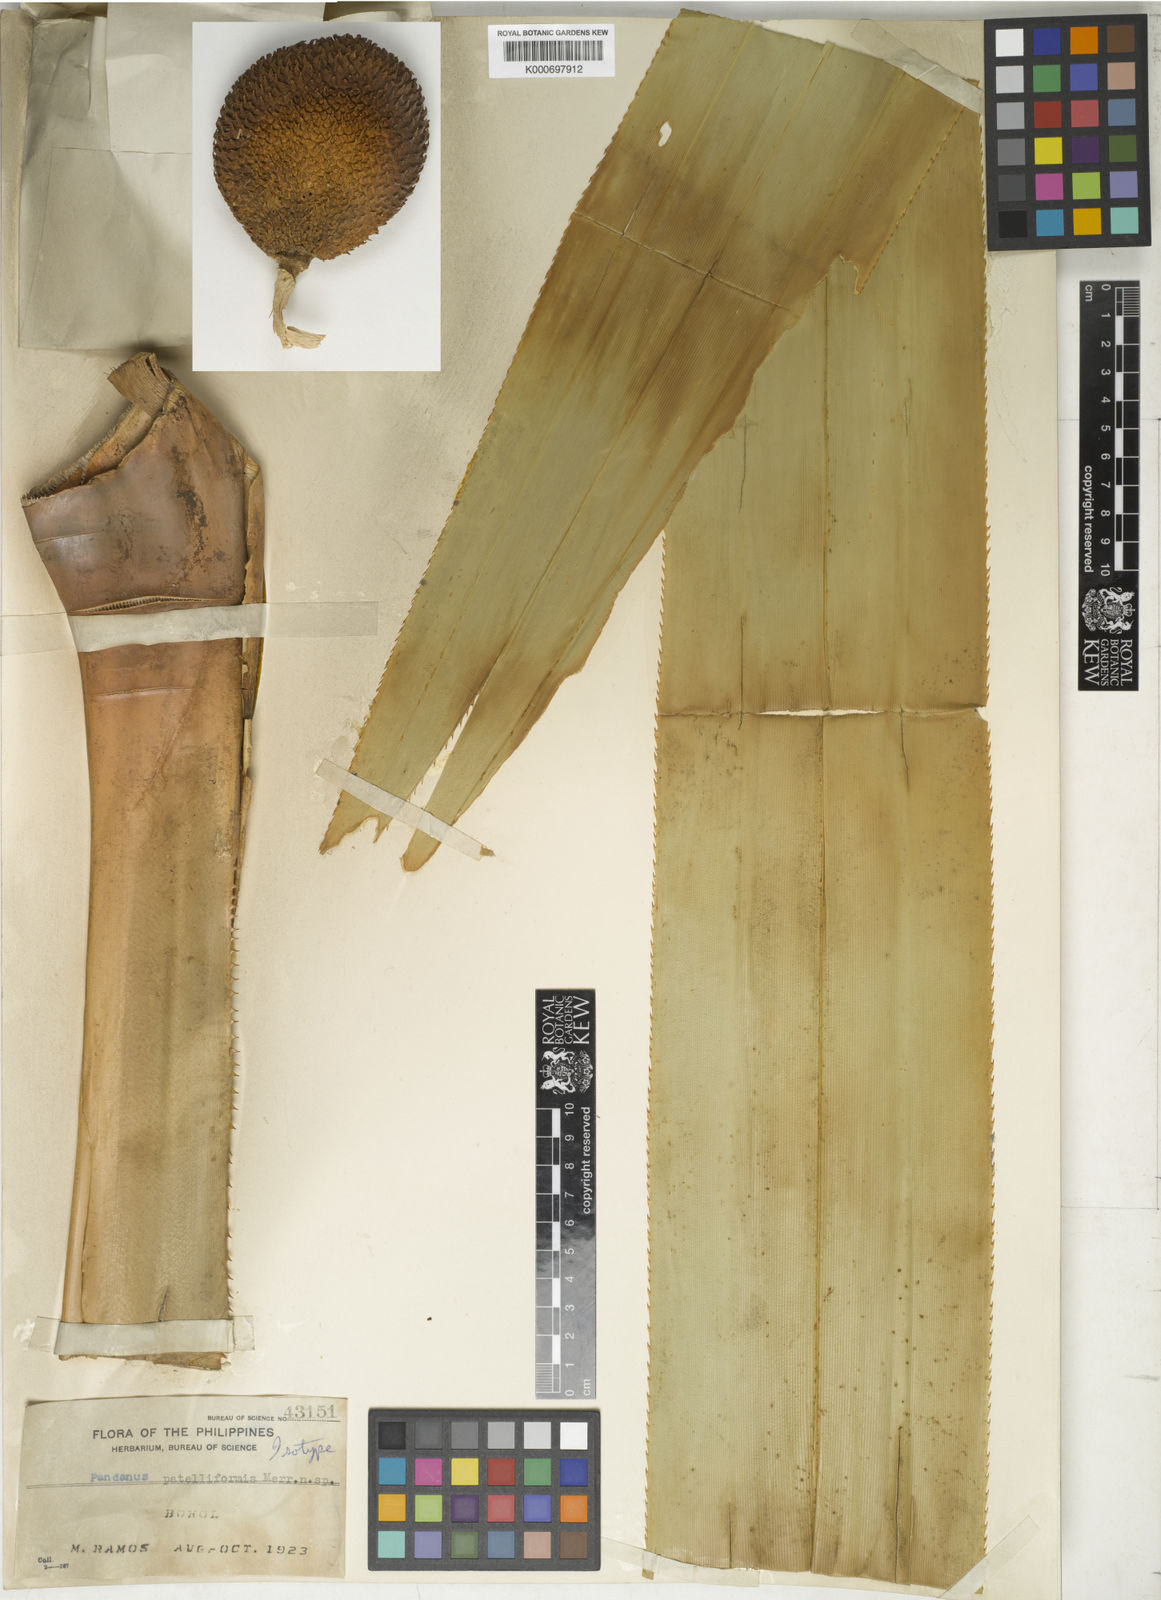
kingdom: Plantae
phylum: Tracheophyta
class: Liliopsida
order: Pandanales
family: Pandanaceae
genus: Pandanus
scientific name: Pandanus patelliformis
